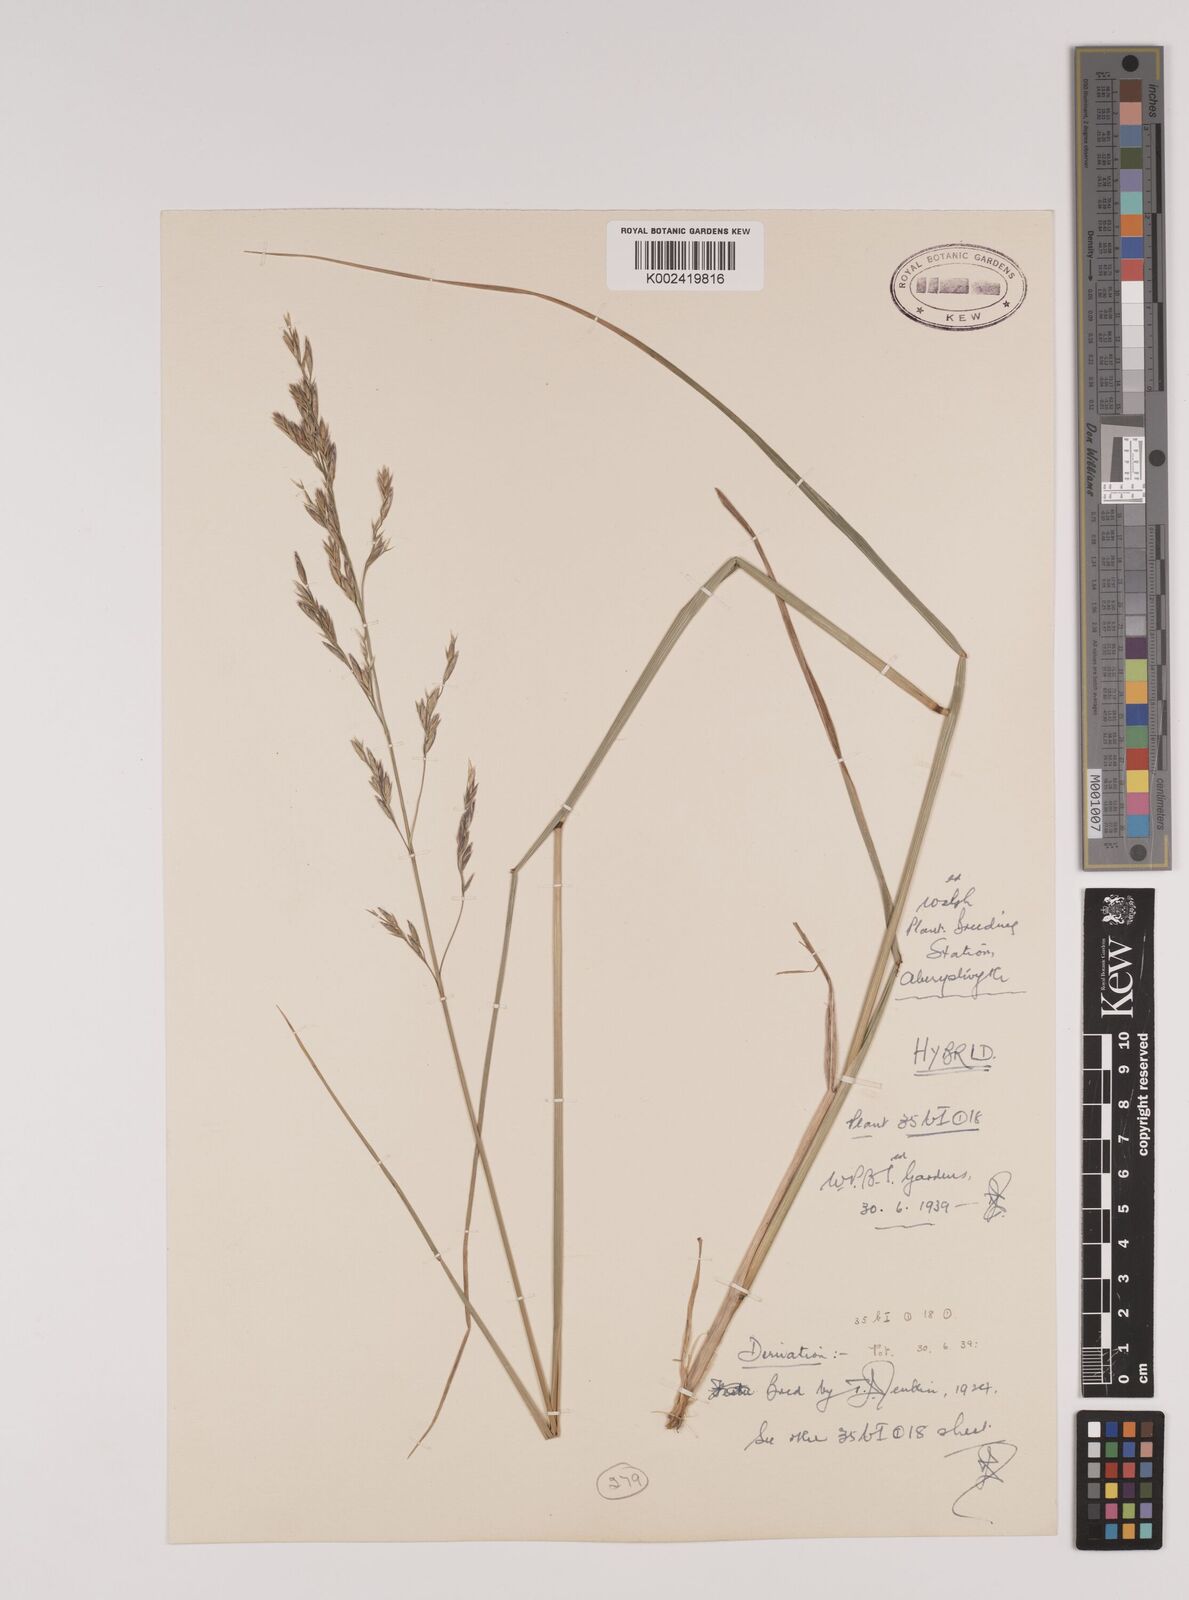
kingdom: Plantae
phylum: Tracheophyta
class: Liliopsida
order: Poales
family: Poaceae
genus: Festuca
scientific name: Festuca rubra
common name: Red fescue
